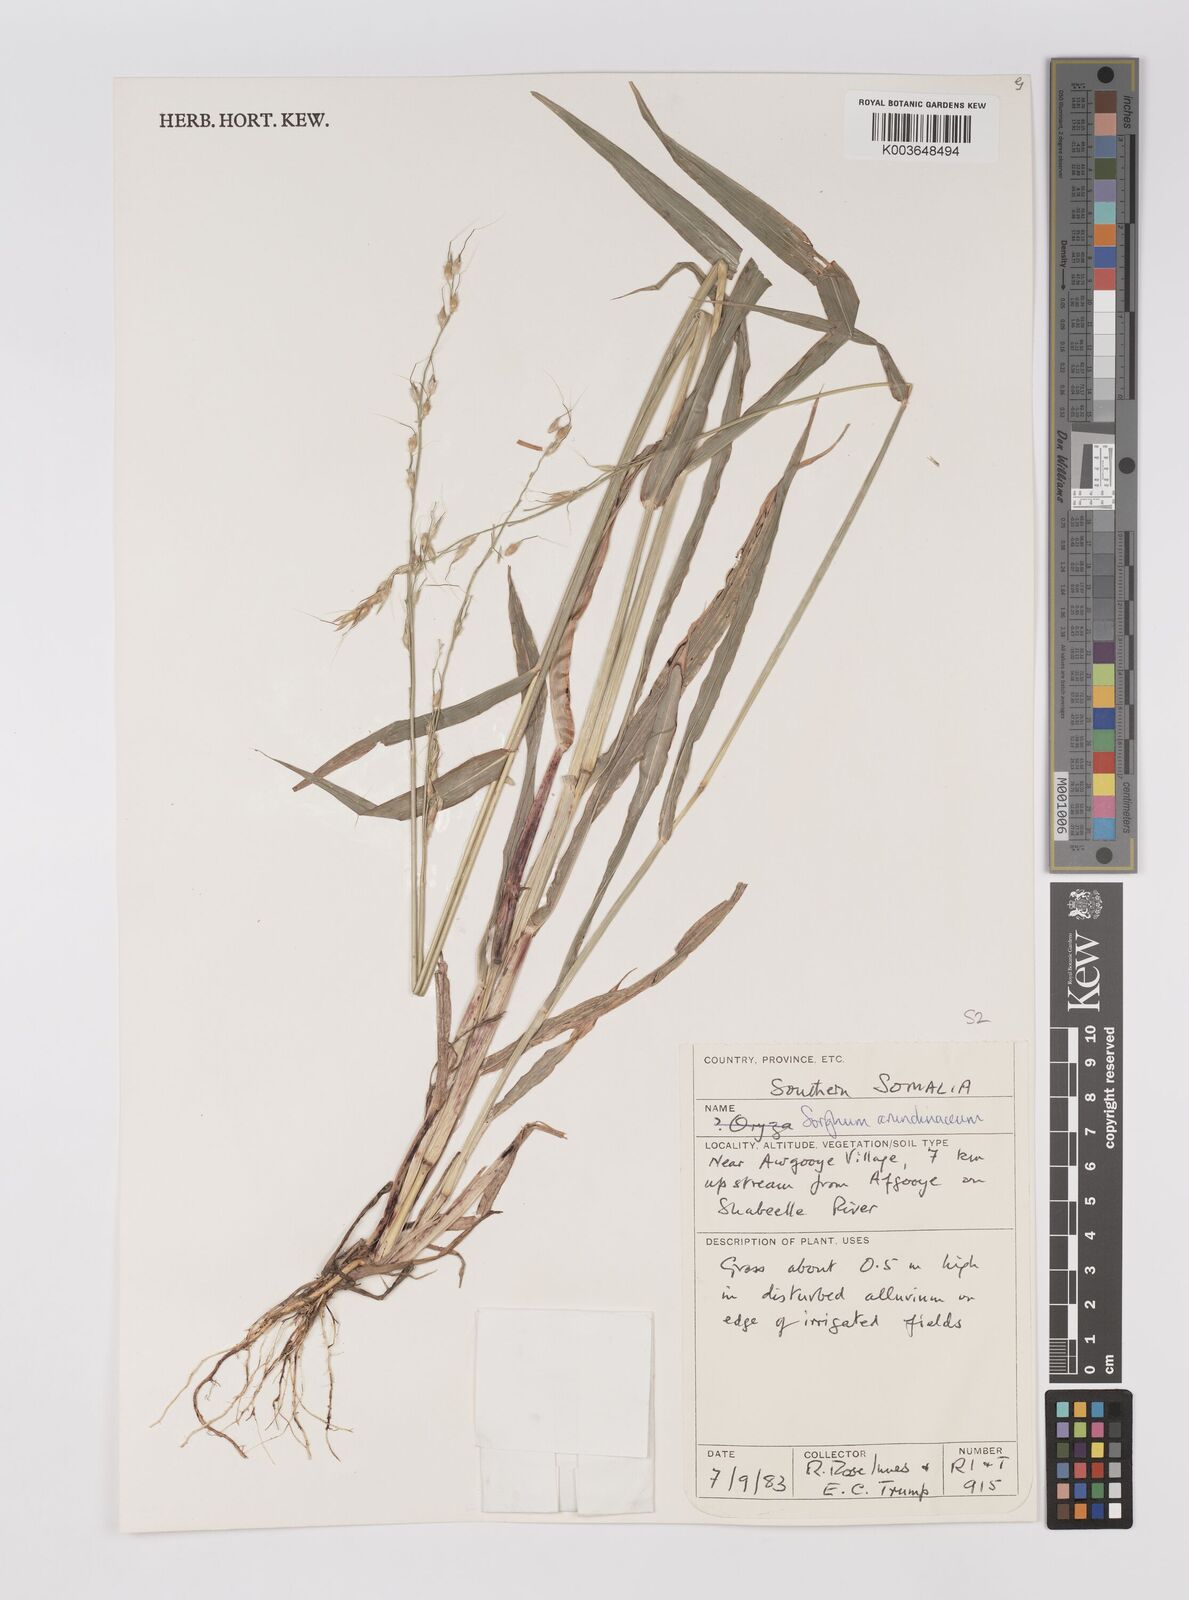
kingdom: Plantae
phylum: Tracheophyta
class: Liliopsida
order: Poales
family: Poaceae
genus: Sorghum
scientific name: Sorghum arundinaceum
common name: Sorghum
